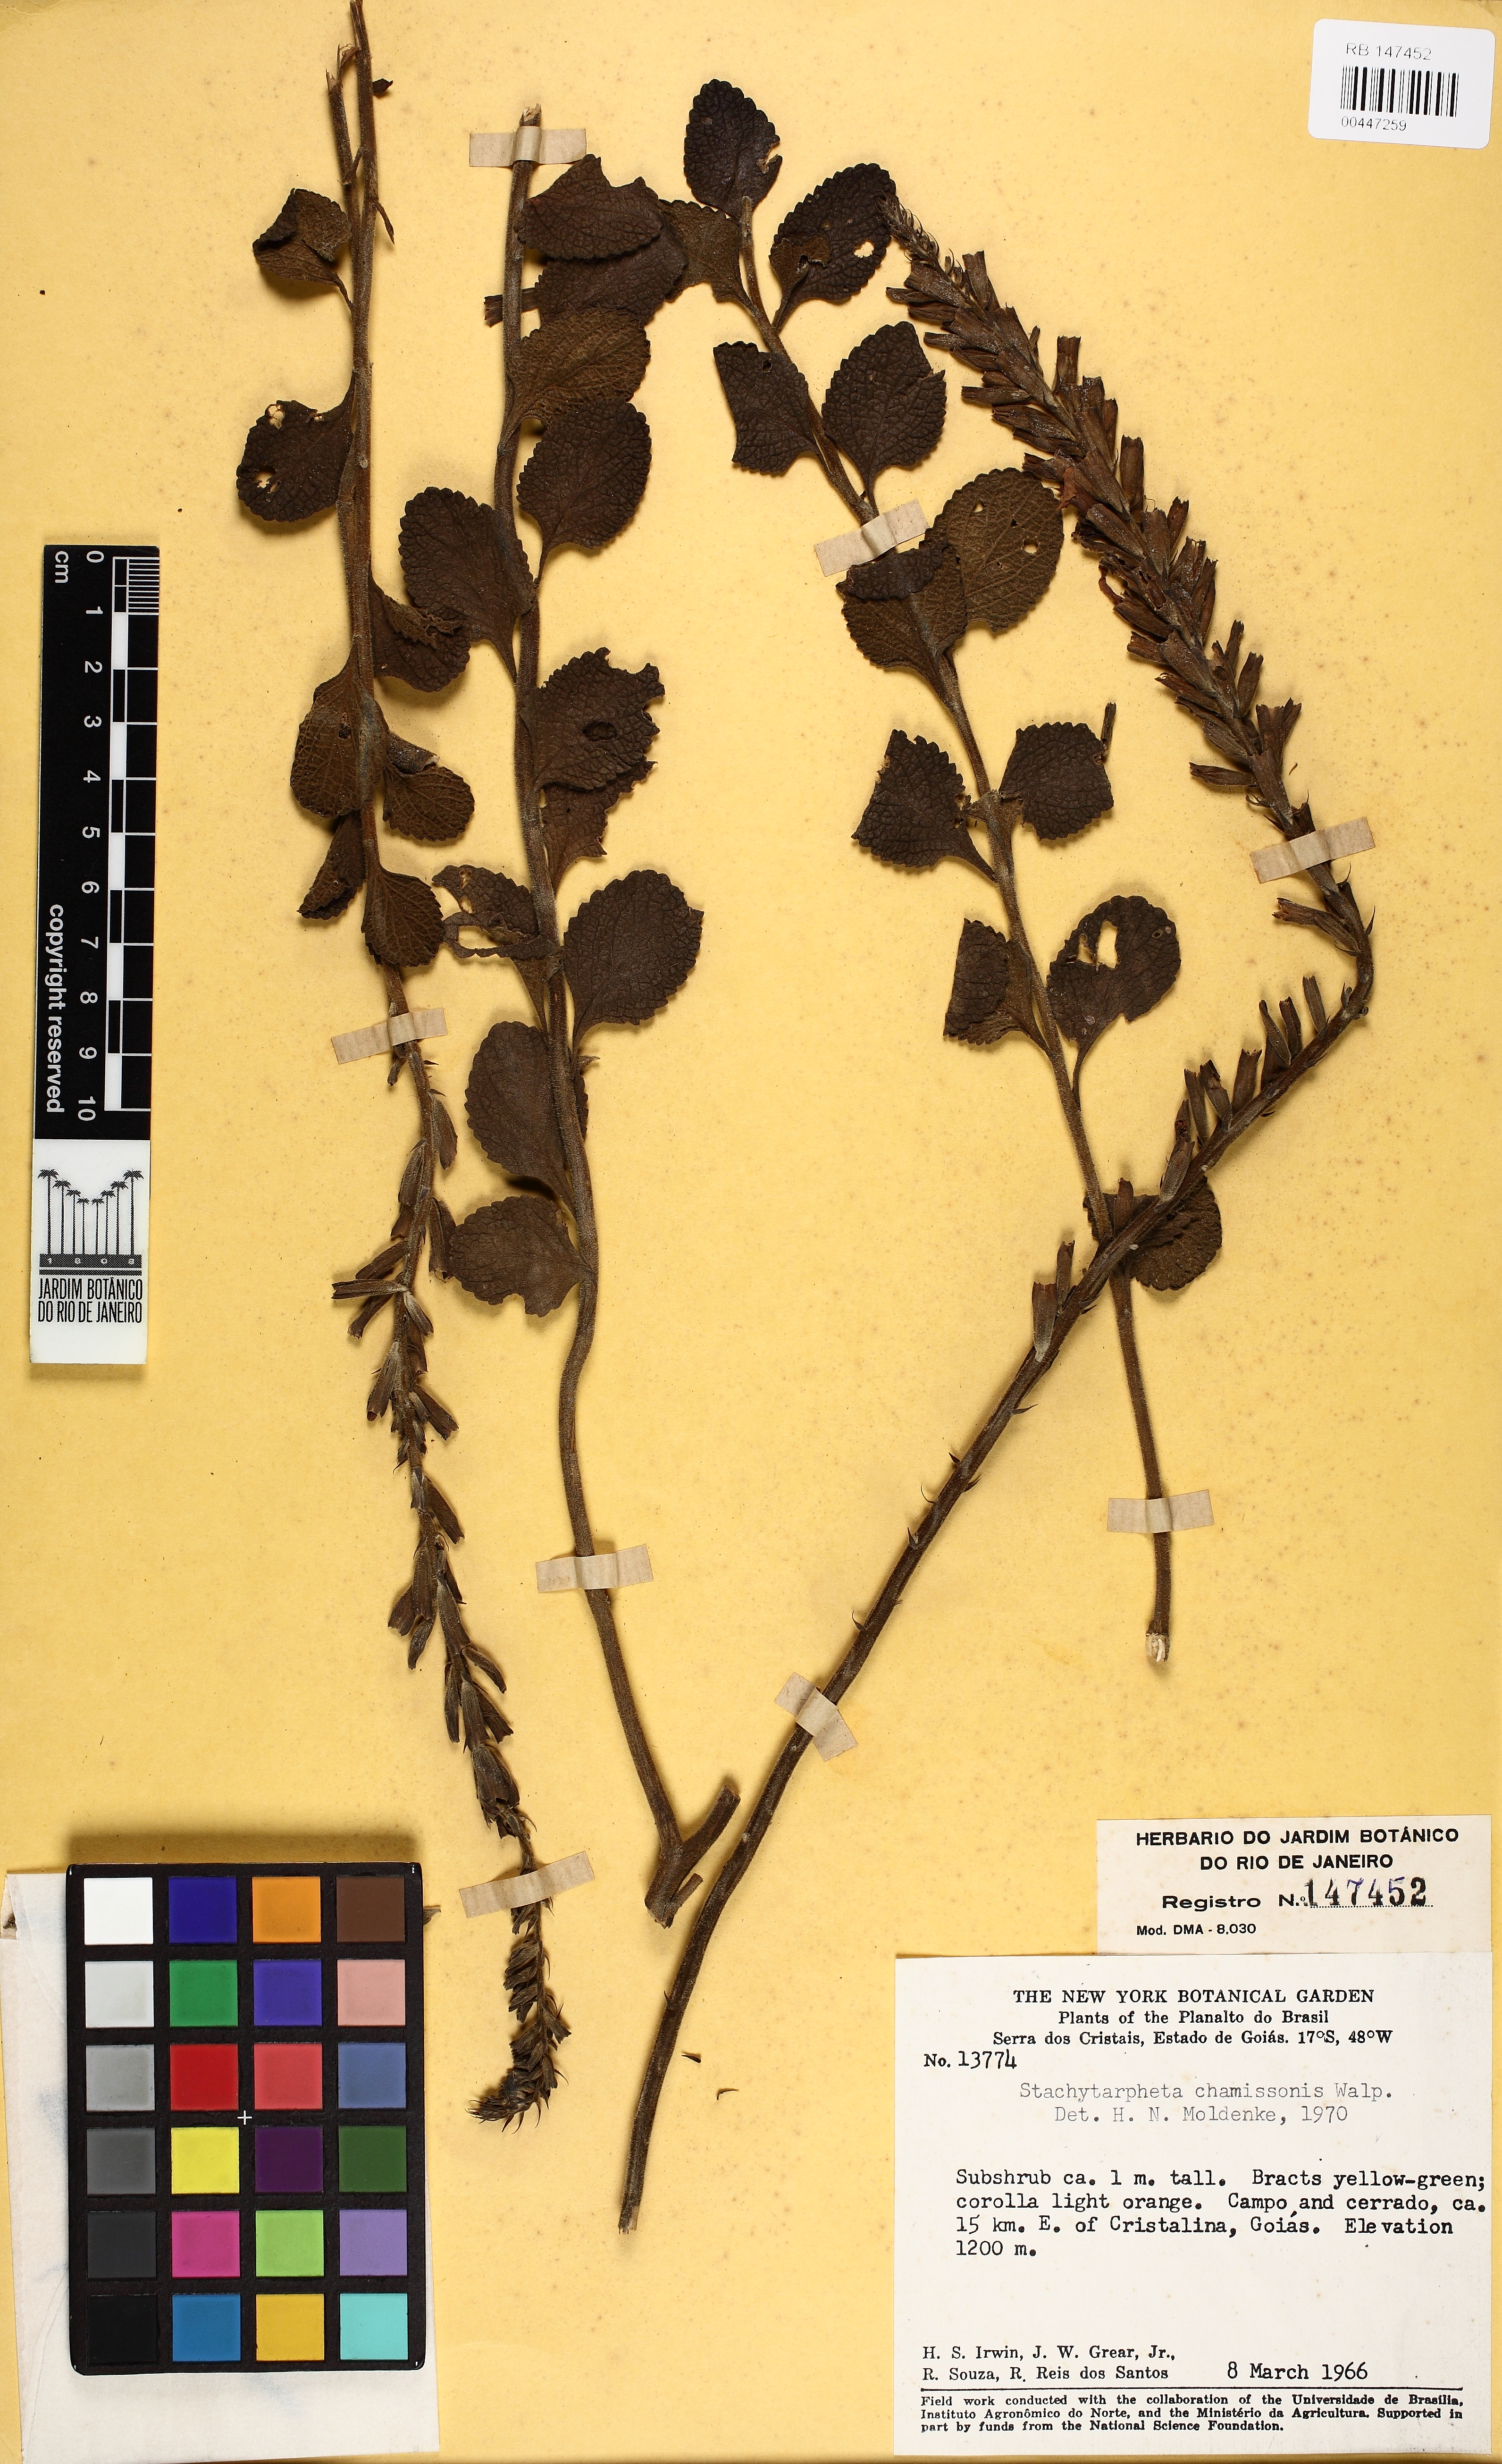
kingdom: Plantae
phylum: Tracheophyta
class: Magnoliopsida
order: Lamiales
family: Verbenaceae
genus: Stachytarpheta
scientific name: Stachytarpheta longispicata
